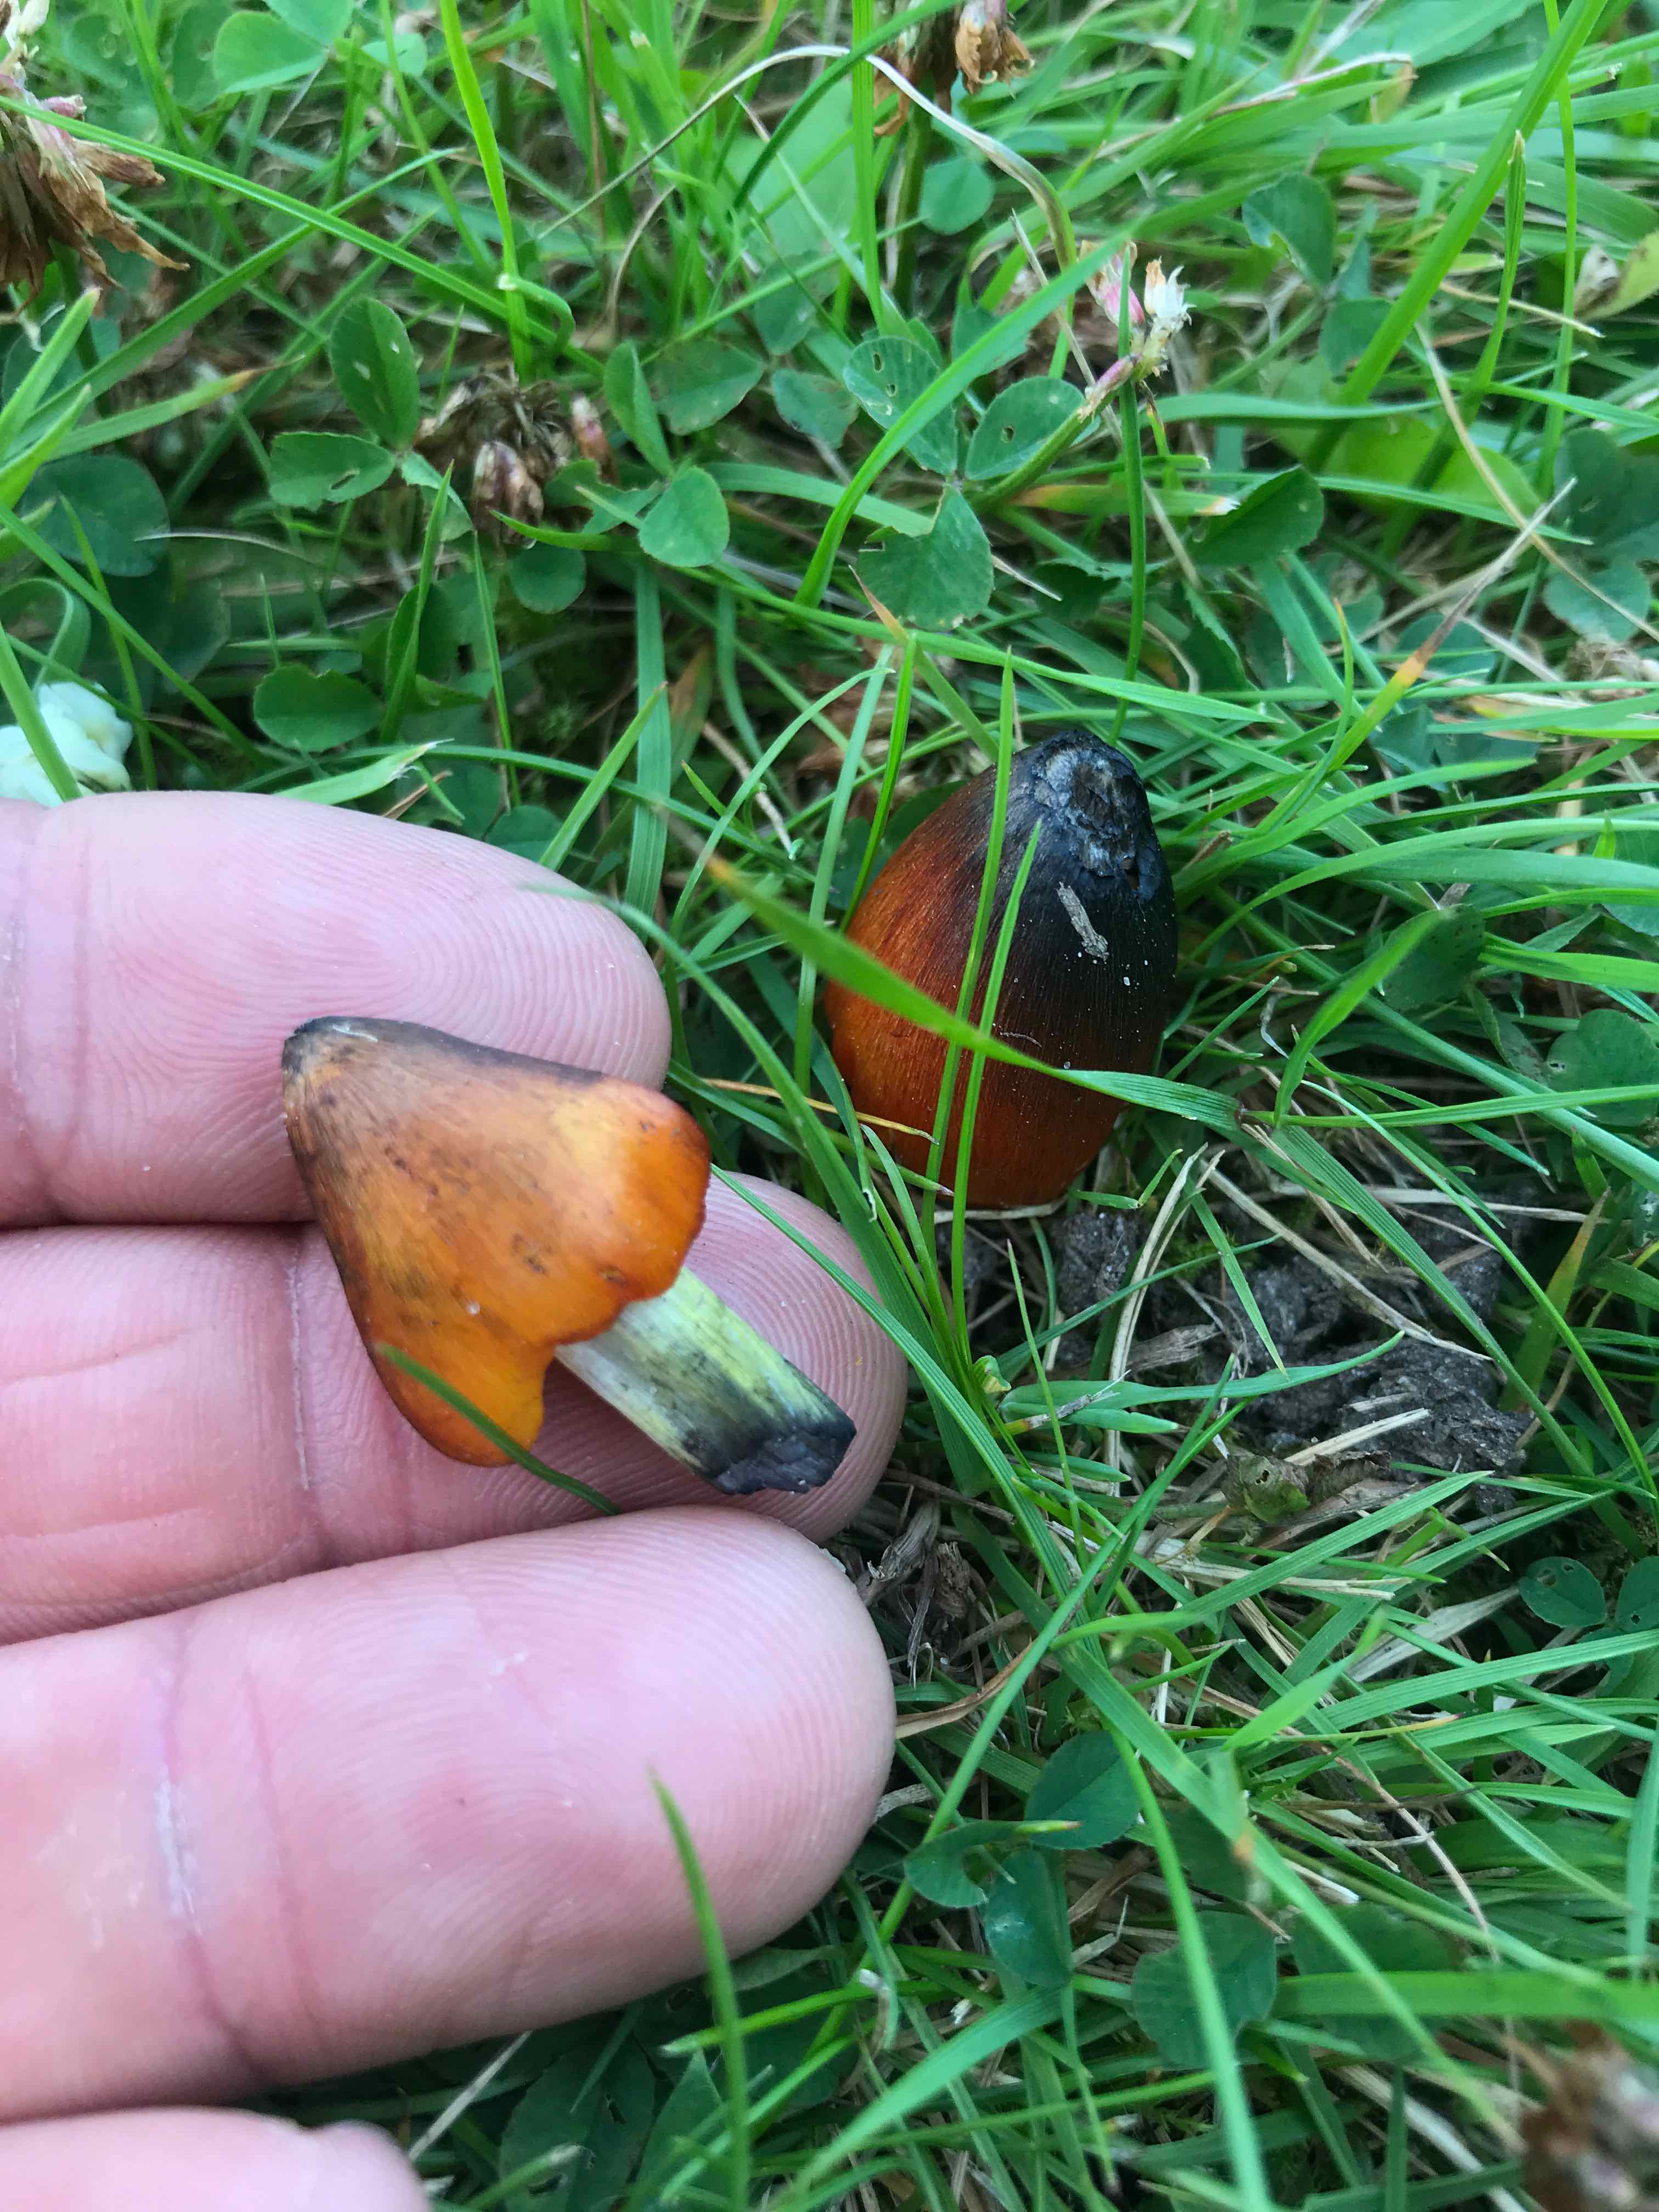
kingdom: Fungi
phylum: Basidiomycota
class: Agaricomycetes
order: Agaricales
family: Hygrophoraceae
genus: Hygrocybe
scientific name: Hygrocybe conica
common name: kegle-vokshat
